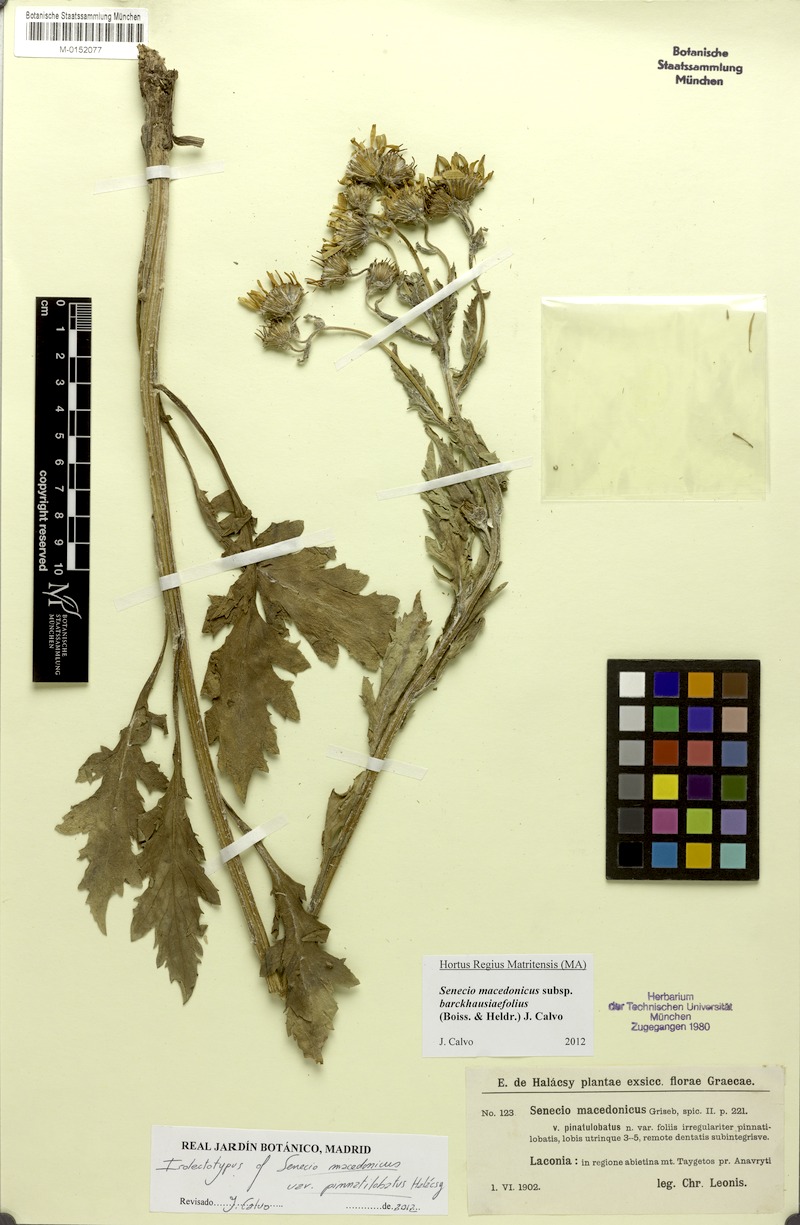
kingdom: Plantae
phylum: Tracheophyta
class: Magnoliopsida
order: Asterales
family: Asteraceae
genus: Senecio
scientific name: Senecio macedonicus
